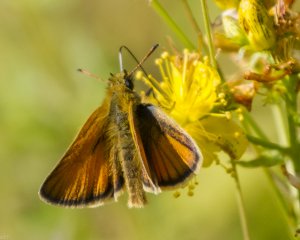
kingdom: Animalia
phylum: Arthropoda
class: Insecta
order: Lepidoptera
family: Hesperiidae
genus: Thymelicus
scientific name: Thymelicus lineola
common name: European Skipper
